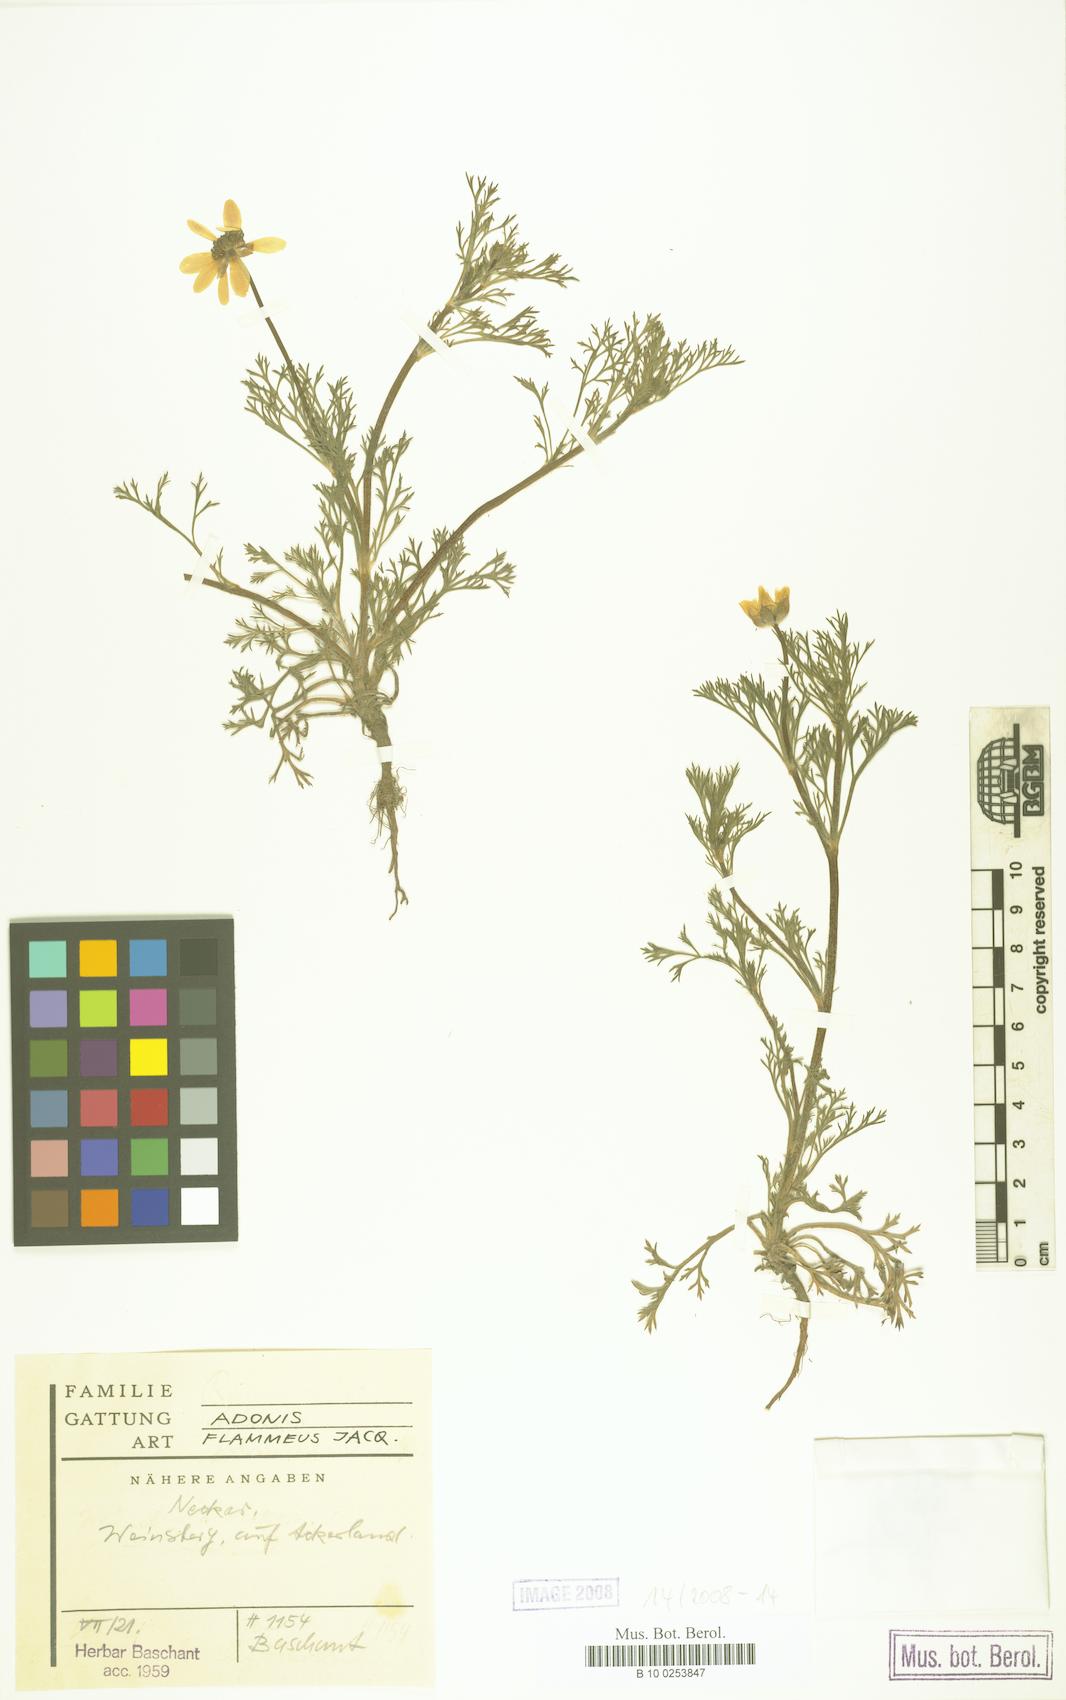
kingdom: Plantae
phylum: Tracheophyta
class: Magnoliopsida
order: Ranunculales
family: Ranunculaceae
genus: Adonis
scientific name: Adonis flammea
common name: Large pheasant's-eye
